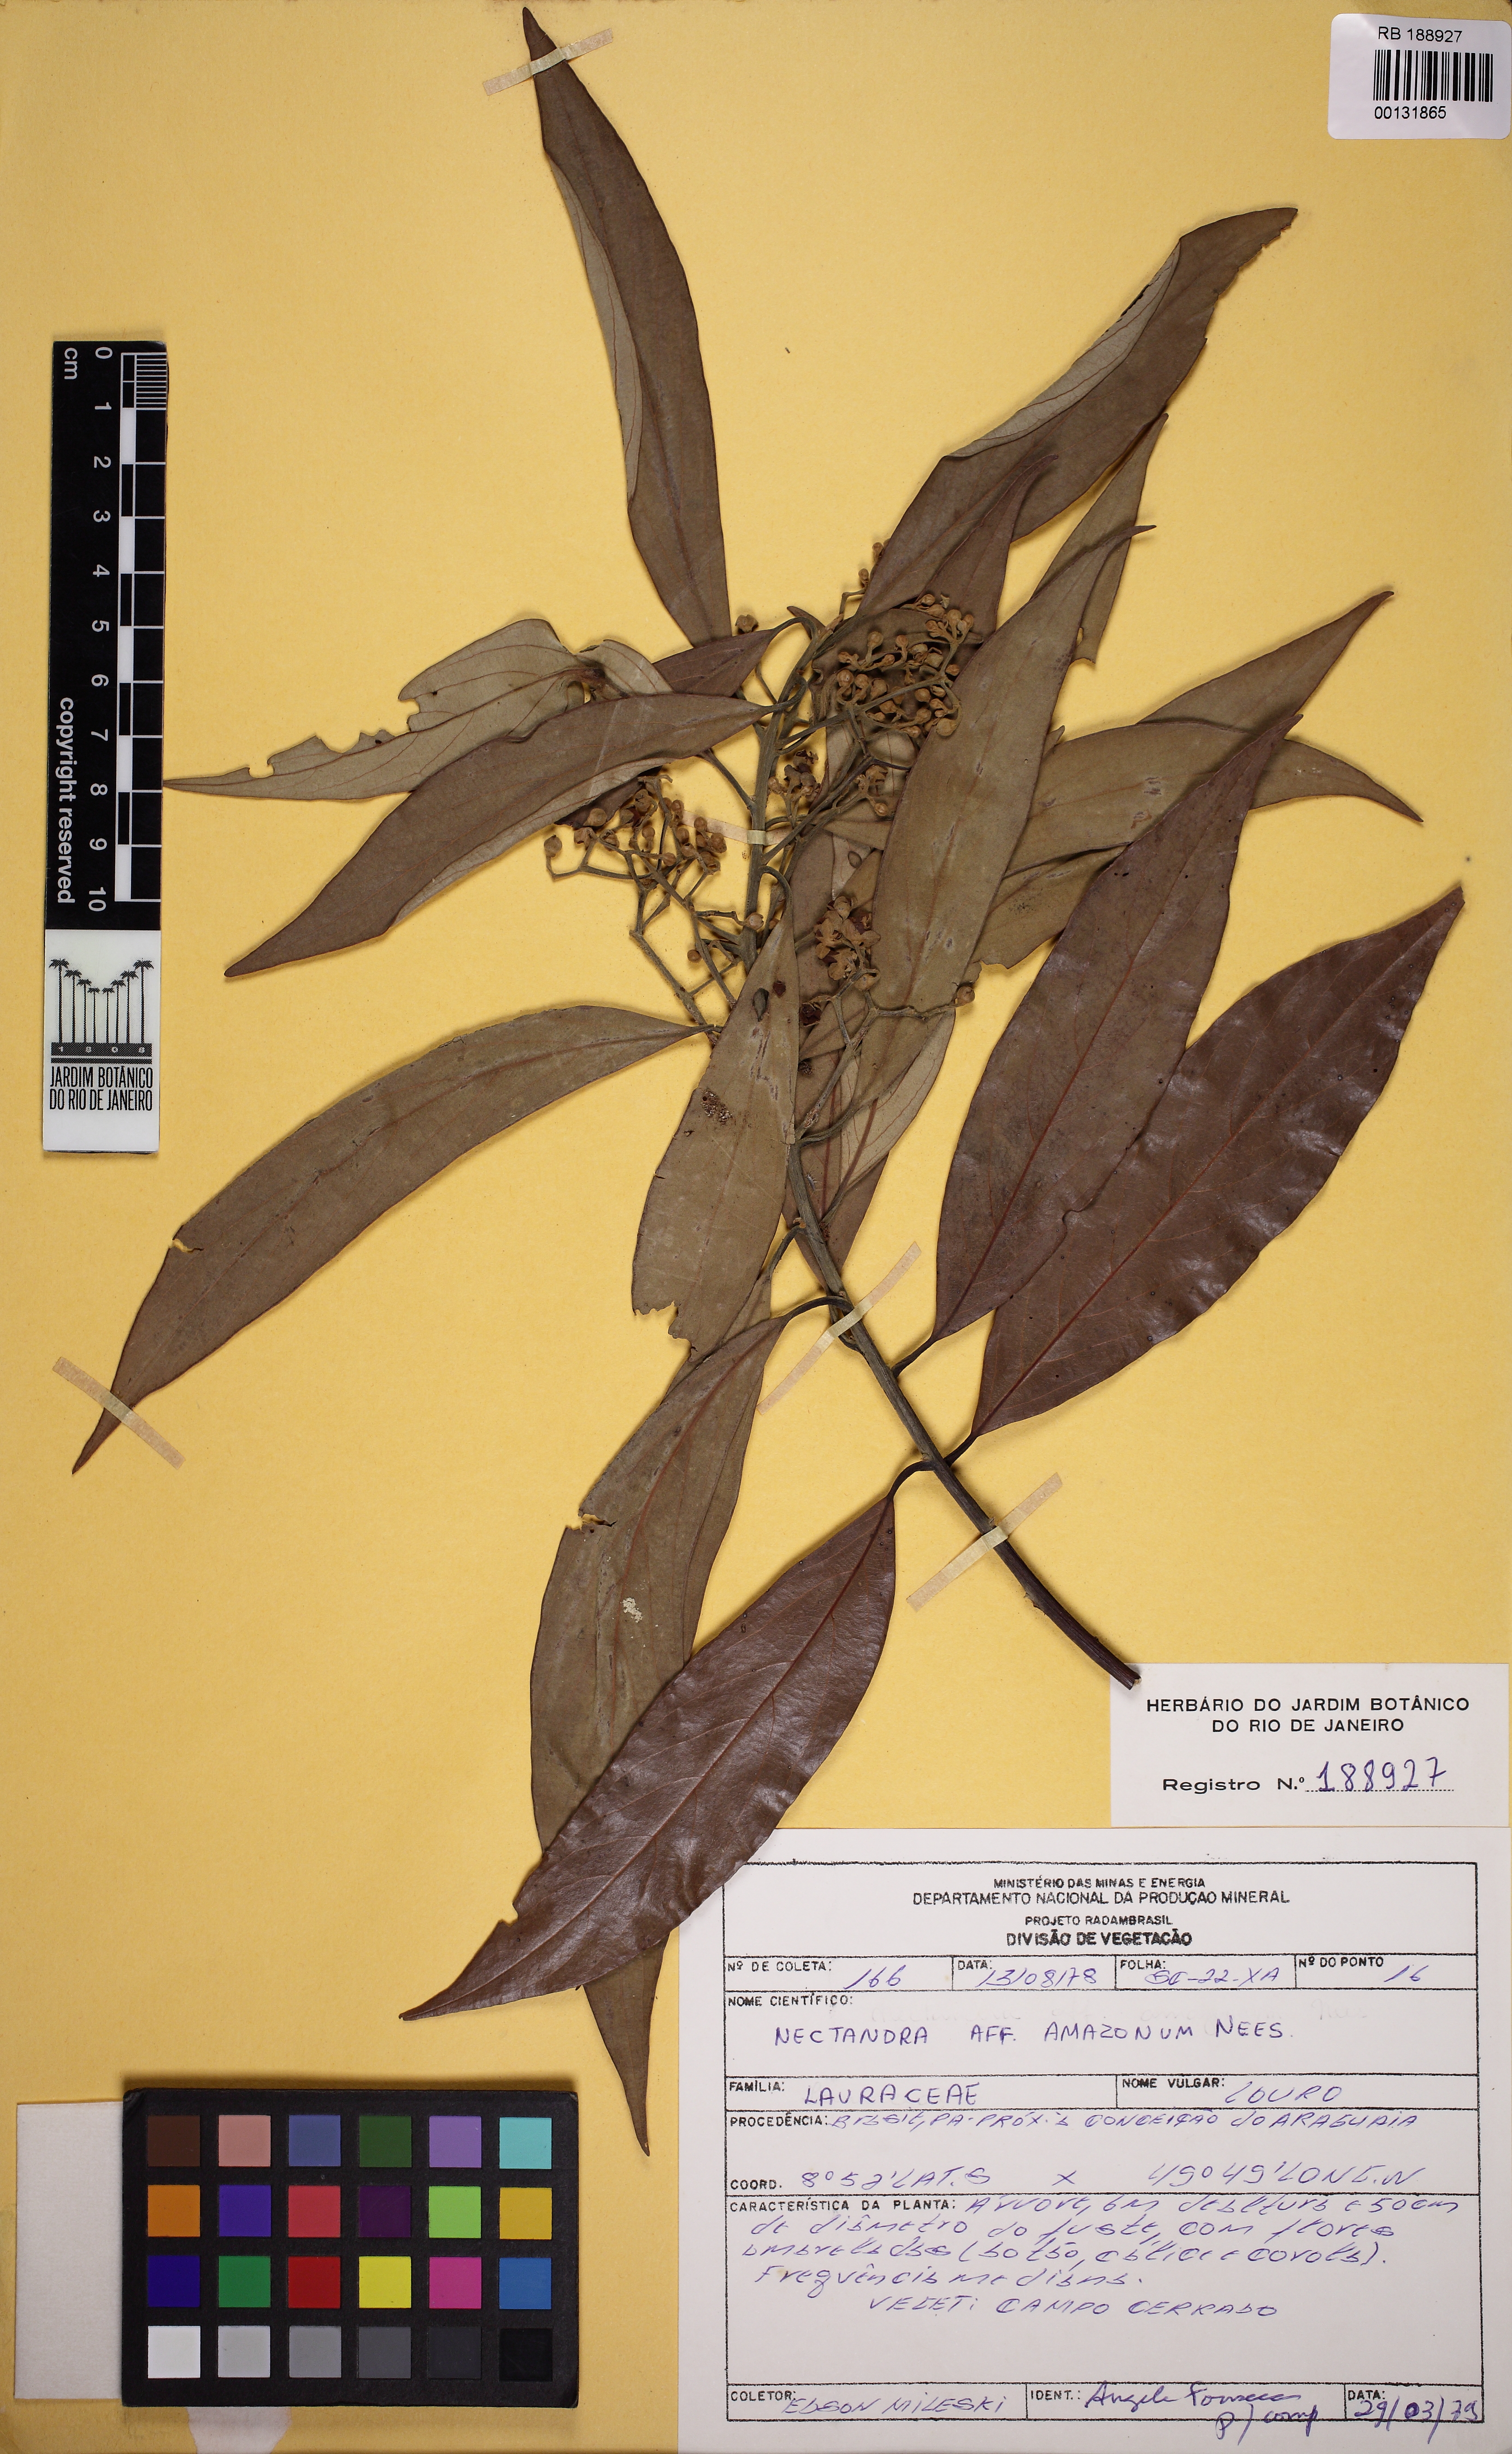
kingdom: Plantae
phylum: Tracheophyta
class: Magnoliopsida
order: Laurales
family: Lauraceae
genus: Nectandra
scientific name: Nectandra amazonum
